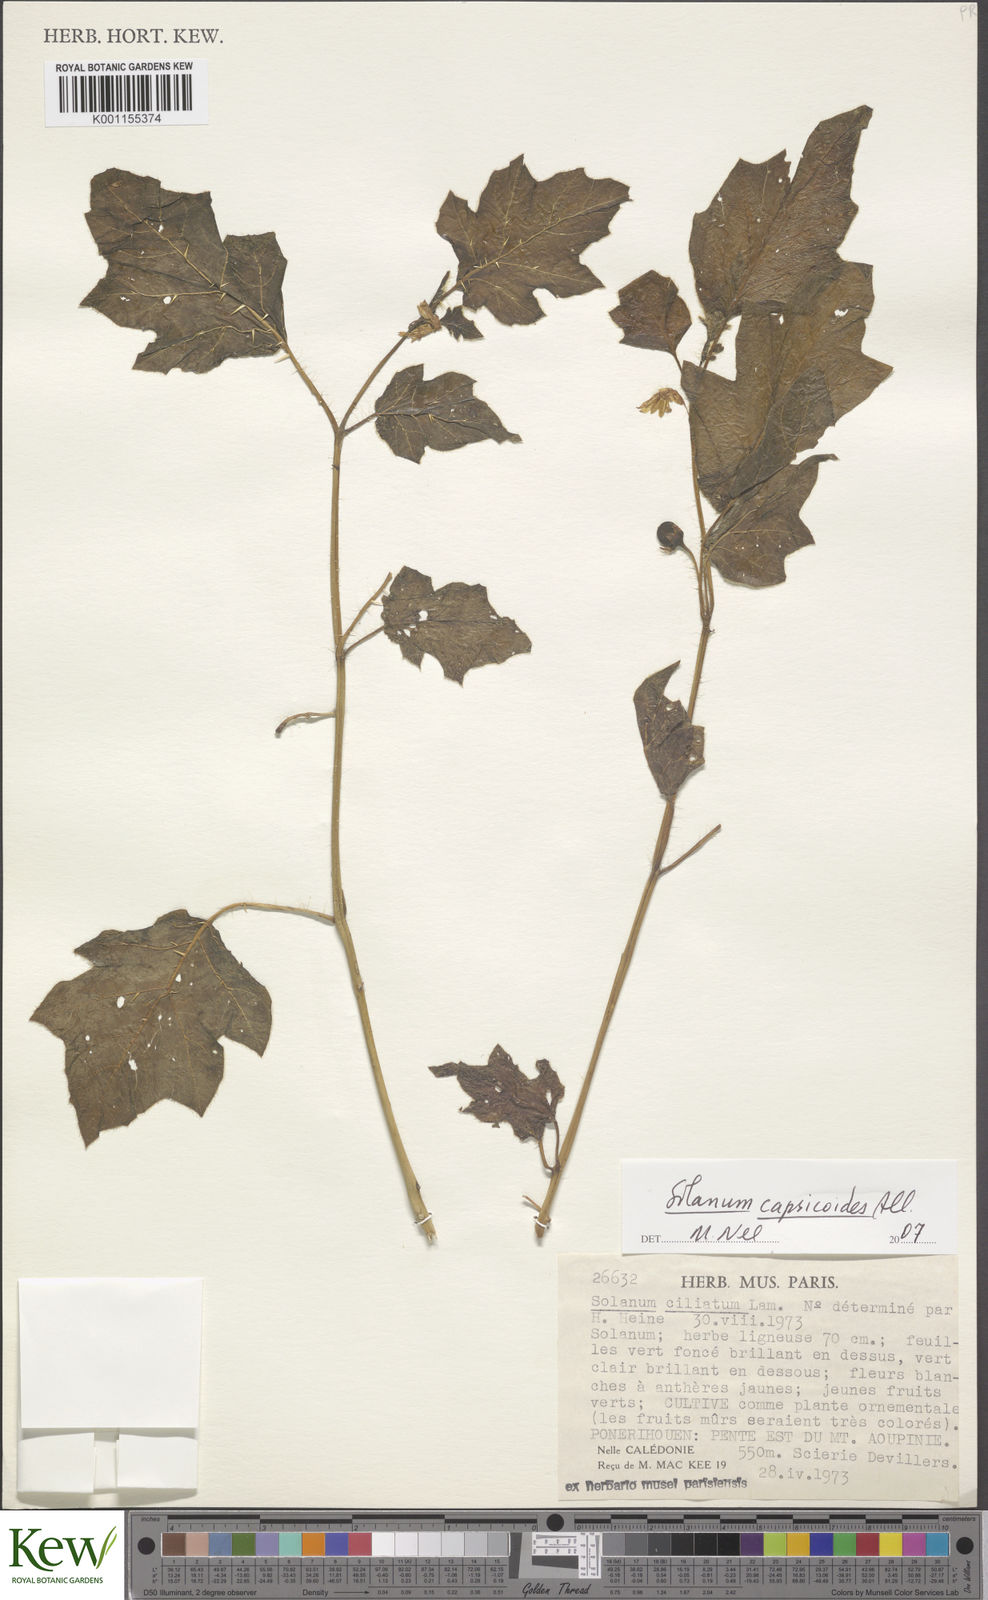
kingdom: Plantae
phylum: Tracheophyta
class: Magnoliopsida
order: Solanales
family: Solanaceae
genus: Solanum
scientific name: Solanum capsicoides
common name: Cockroach berry
